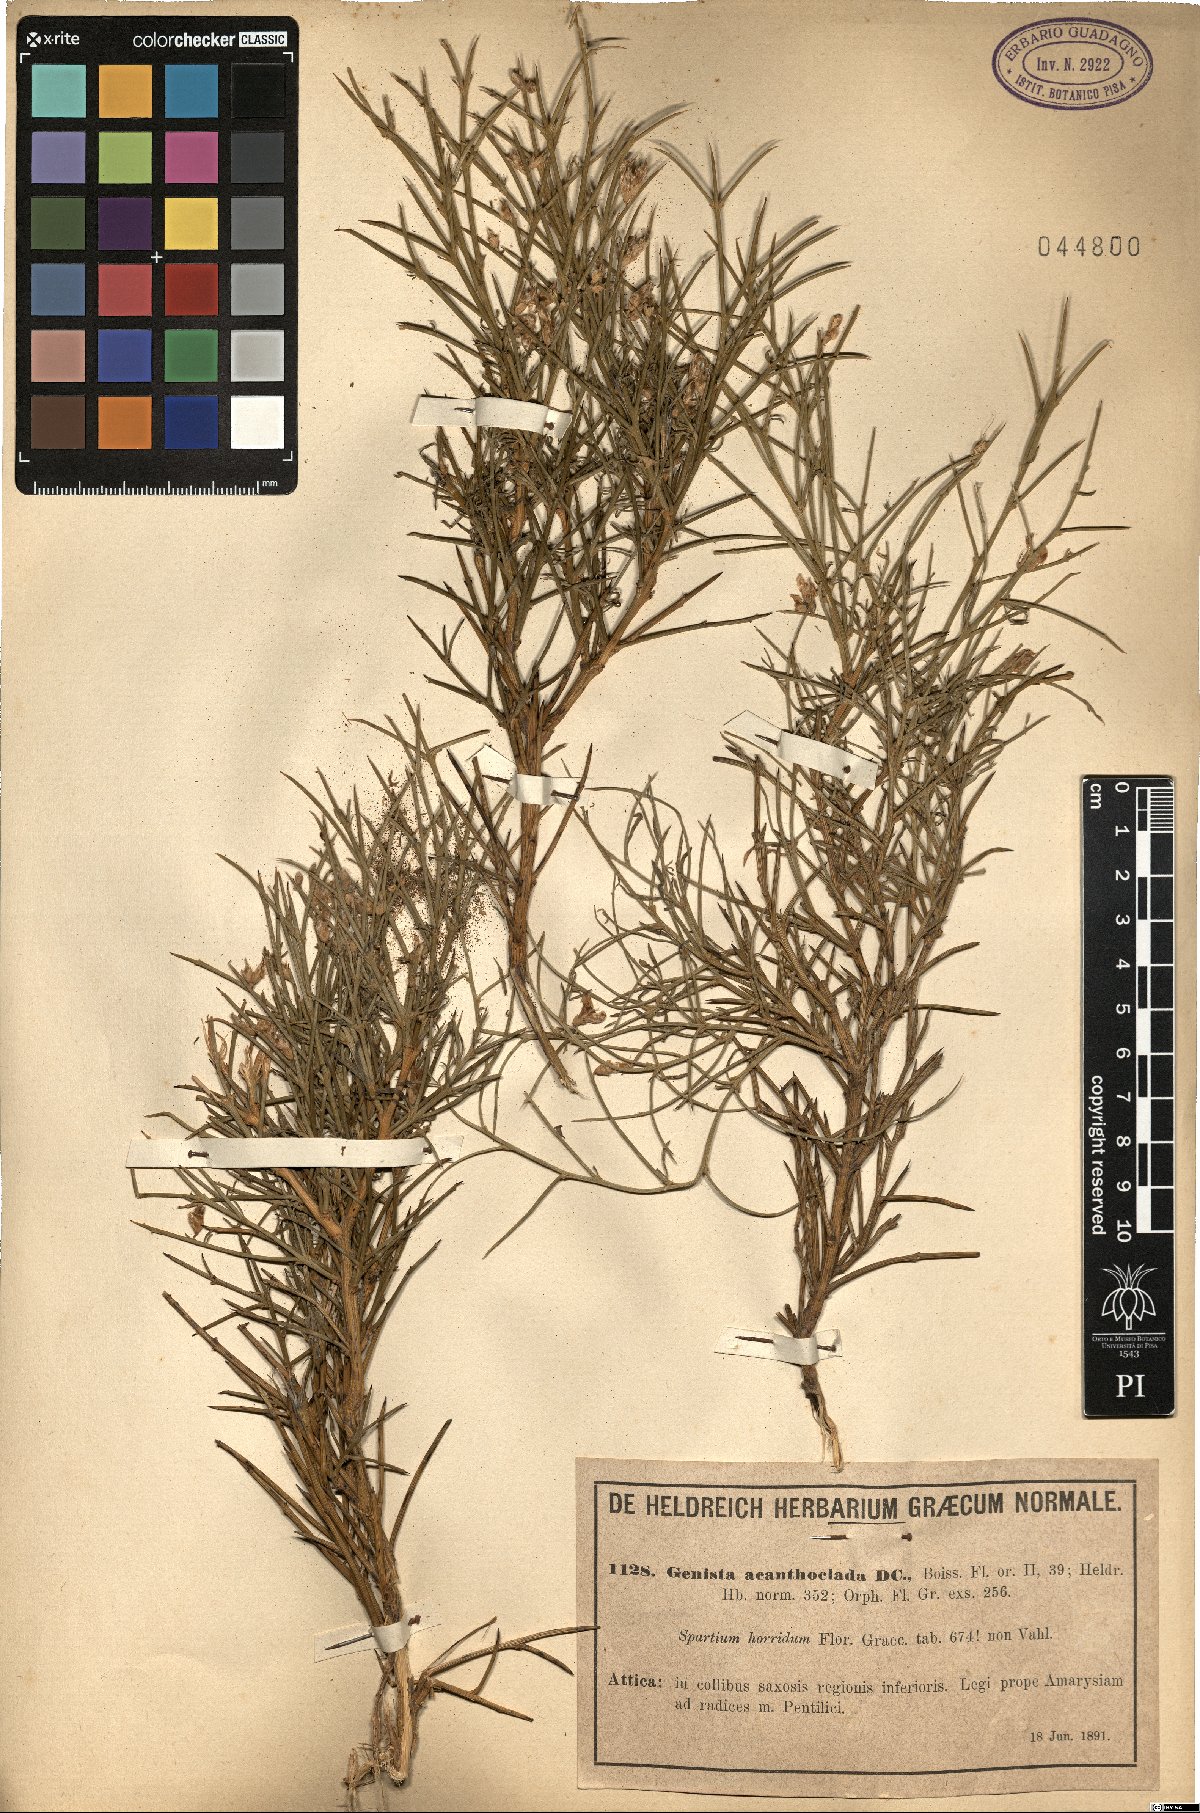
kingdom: Plantae
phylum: Tracheophyta
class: Magnoliopsida
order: Fabales
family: Fabaceae
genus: Genista
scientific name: Genista acanthoclada
